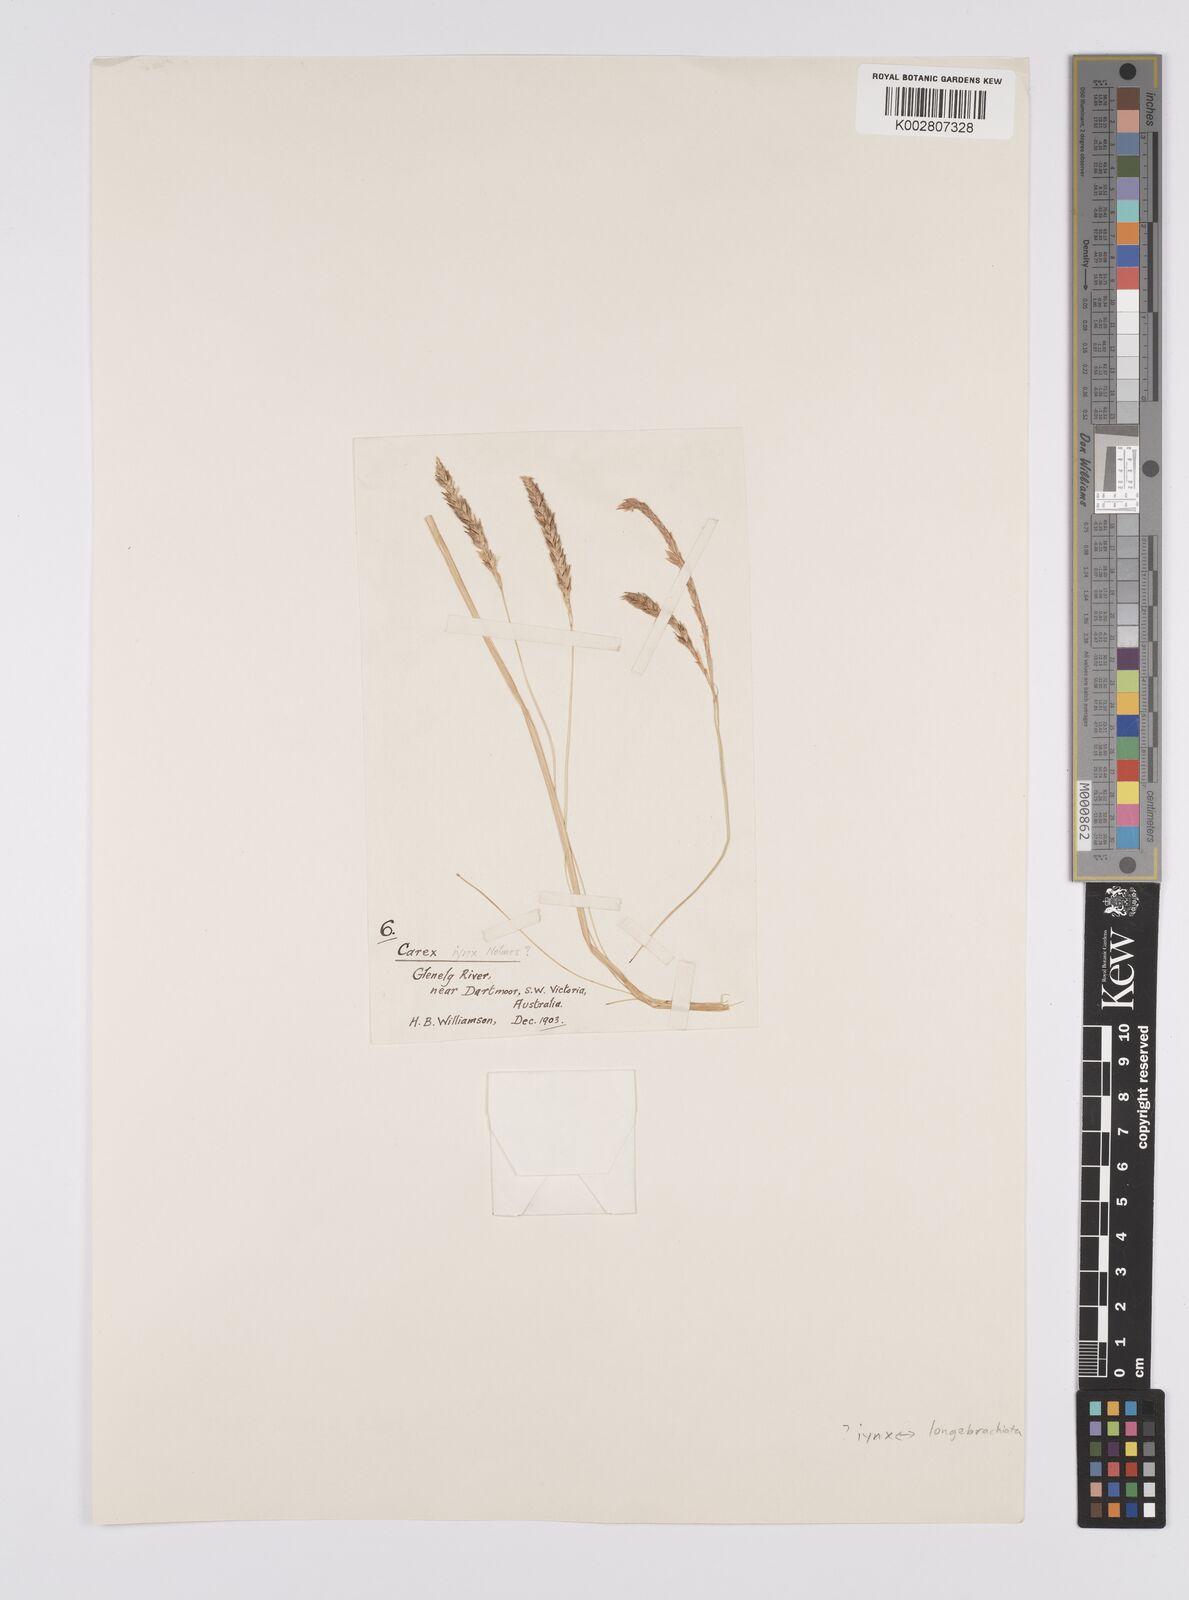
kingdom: Plantae
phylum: Tracheophyta
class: Liliopsida
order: Poales
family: Cyperaceae
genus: Carex
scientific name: Carex pseudocyperus
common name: Cyperus sedge
